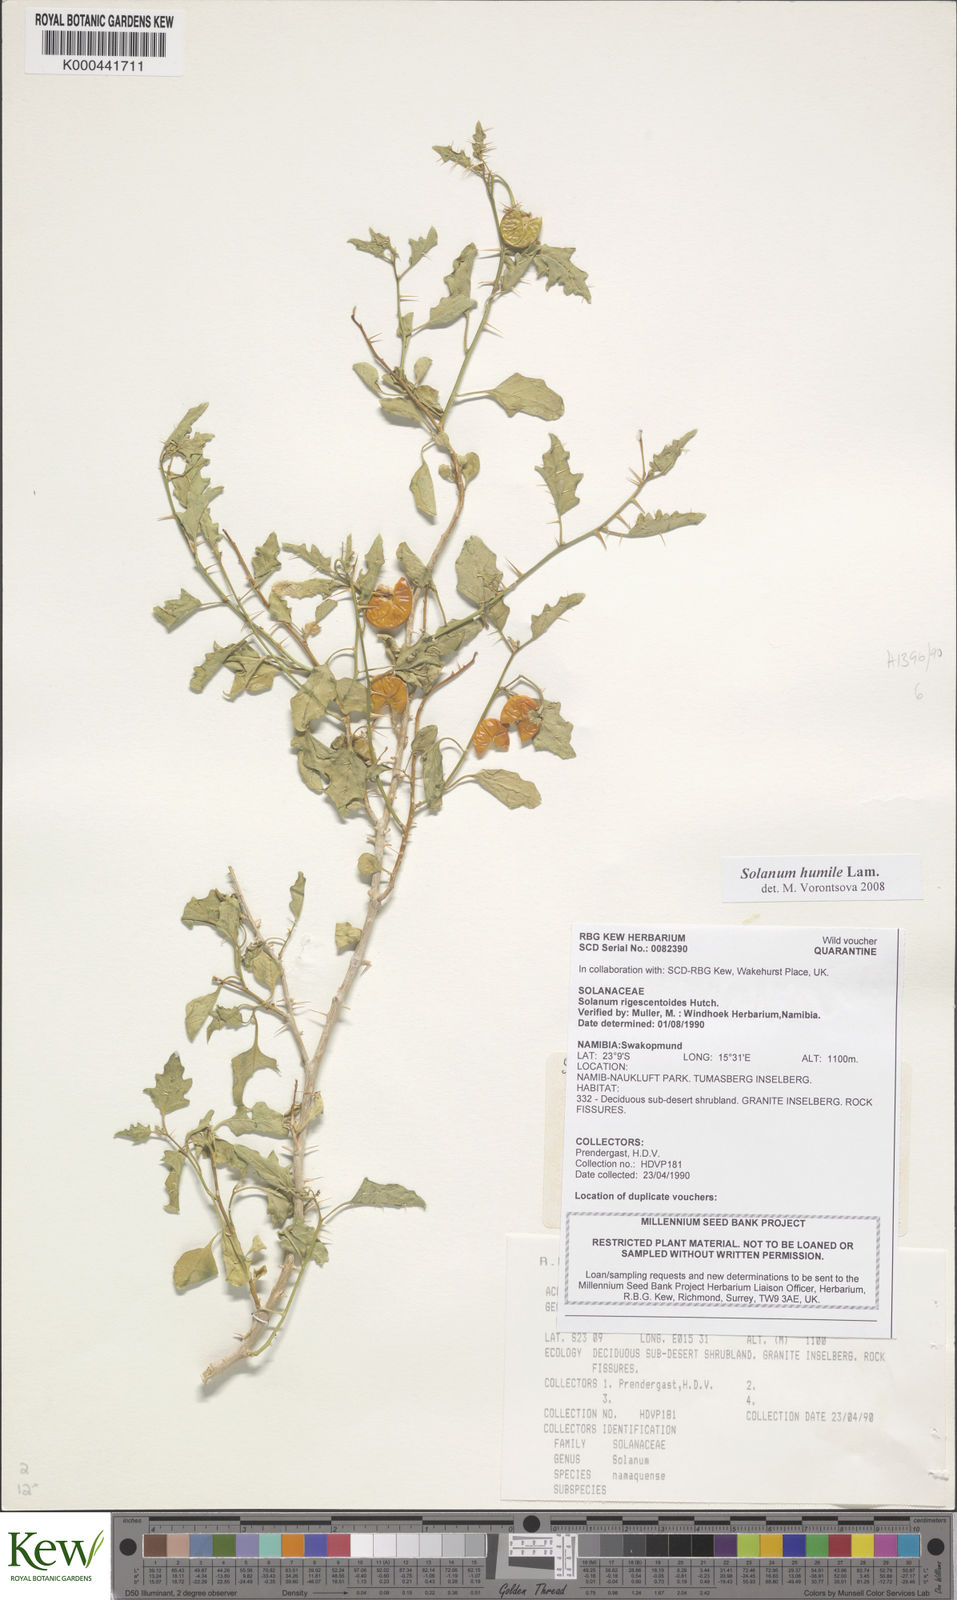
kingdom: Plantae
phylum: Tracheophyta
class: Magnoliopsida
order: Solanales
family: Solanaceae
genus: Solanum
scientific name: Solanum humile
